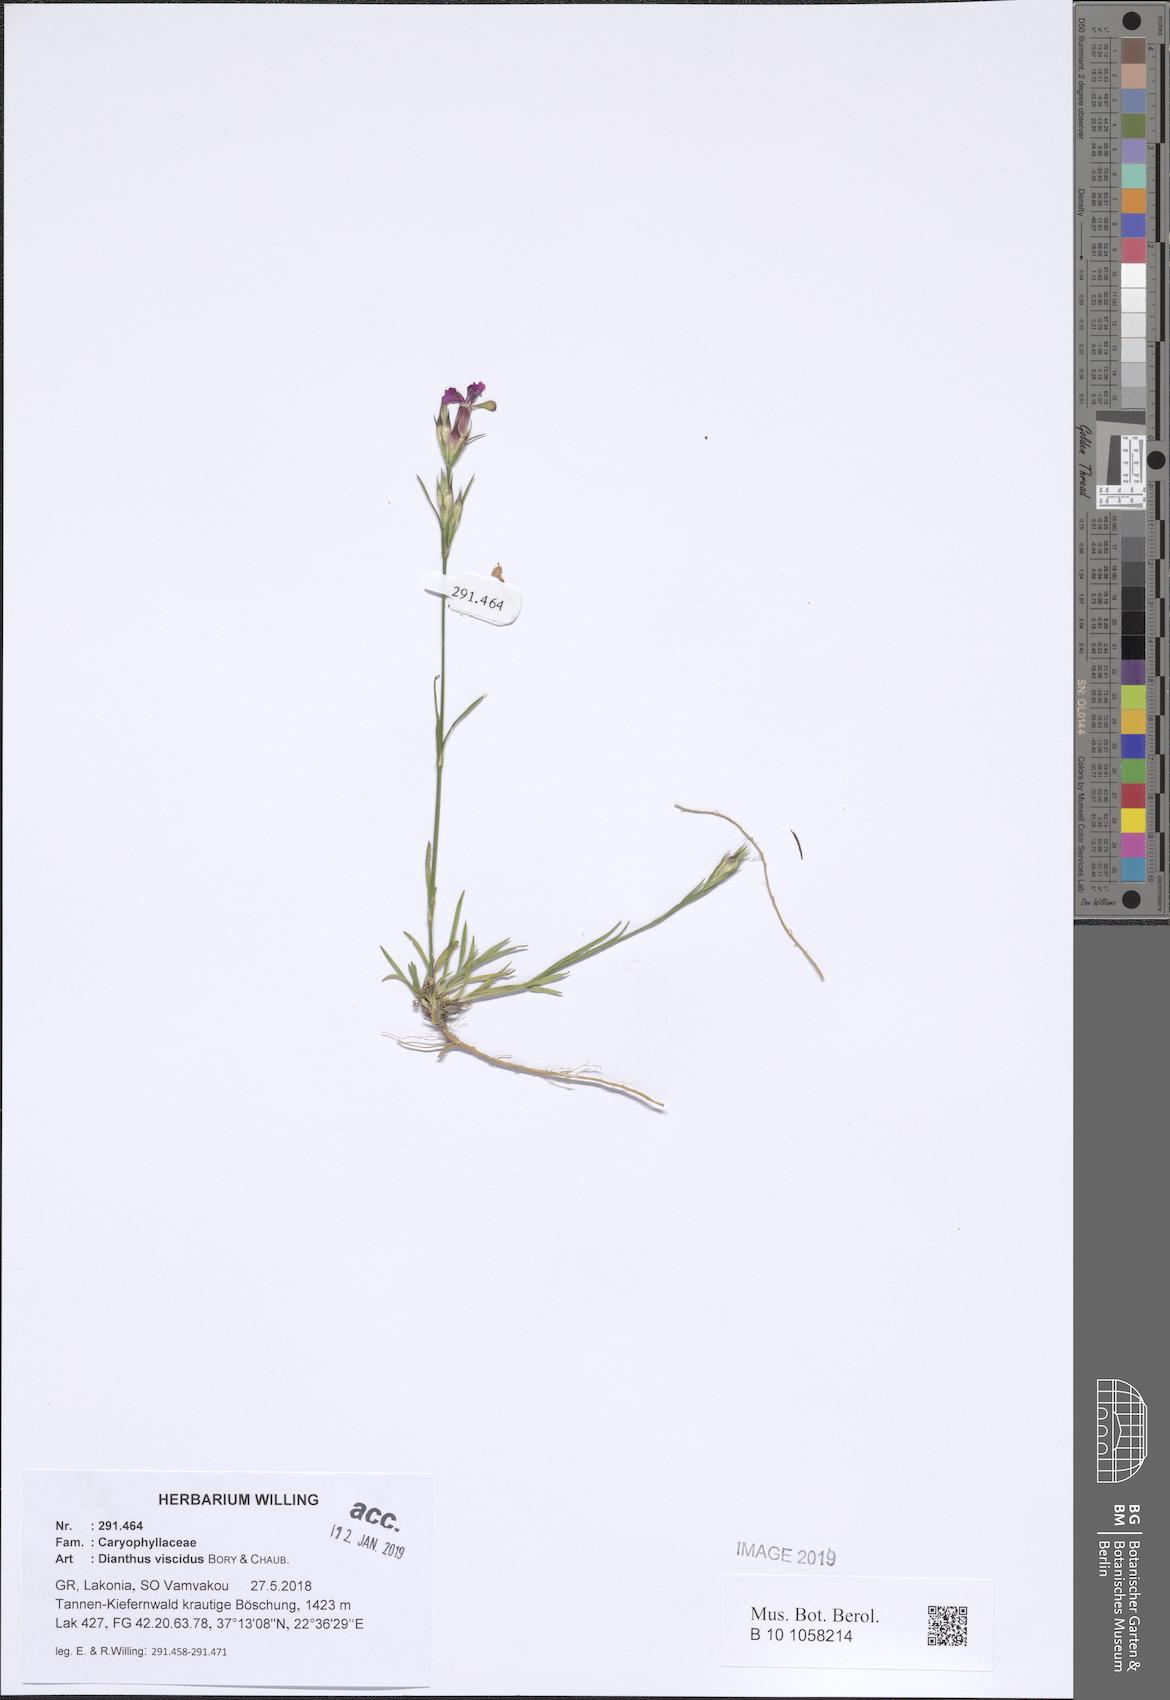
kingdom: Plantae
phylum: Tracheophyta
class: Magnoliopsida
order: Caryophyllales
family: Caryophyllaceae
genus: Dianthus
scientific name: Dianthus viscidus
